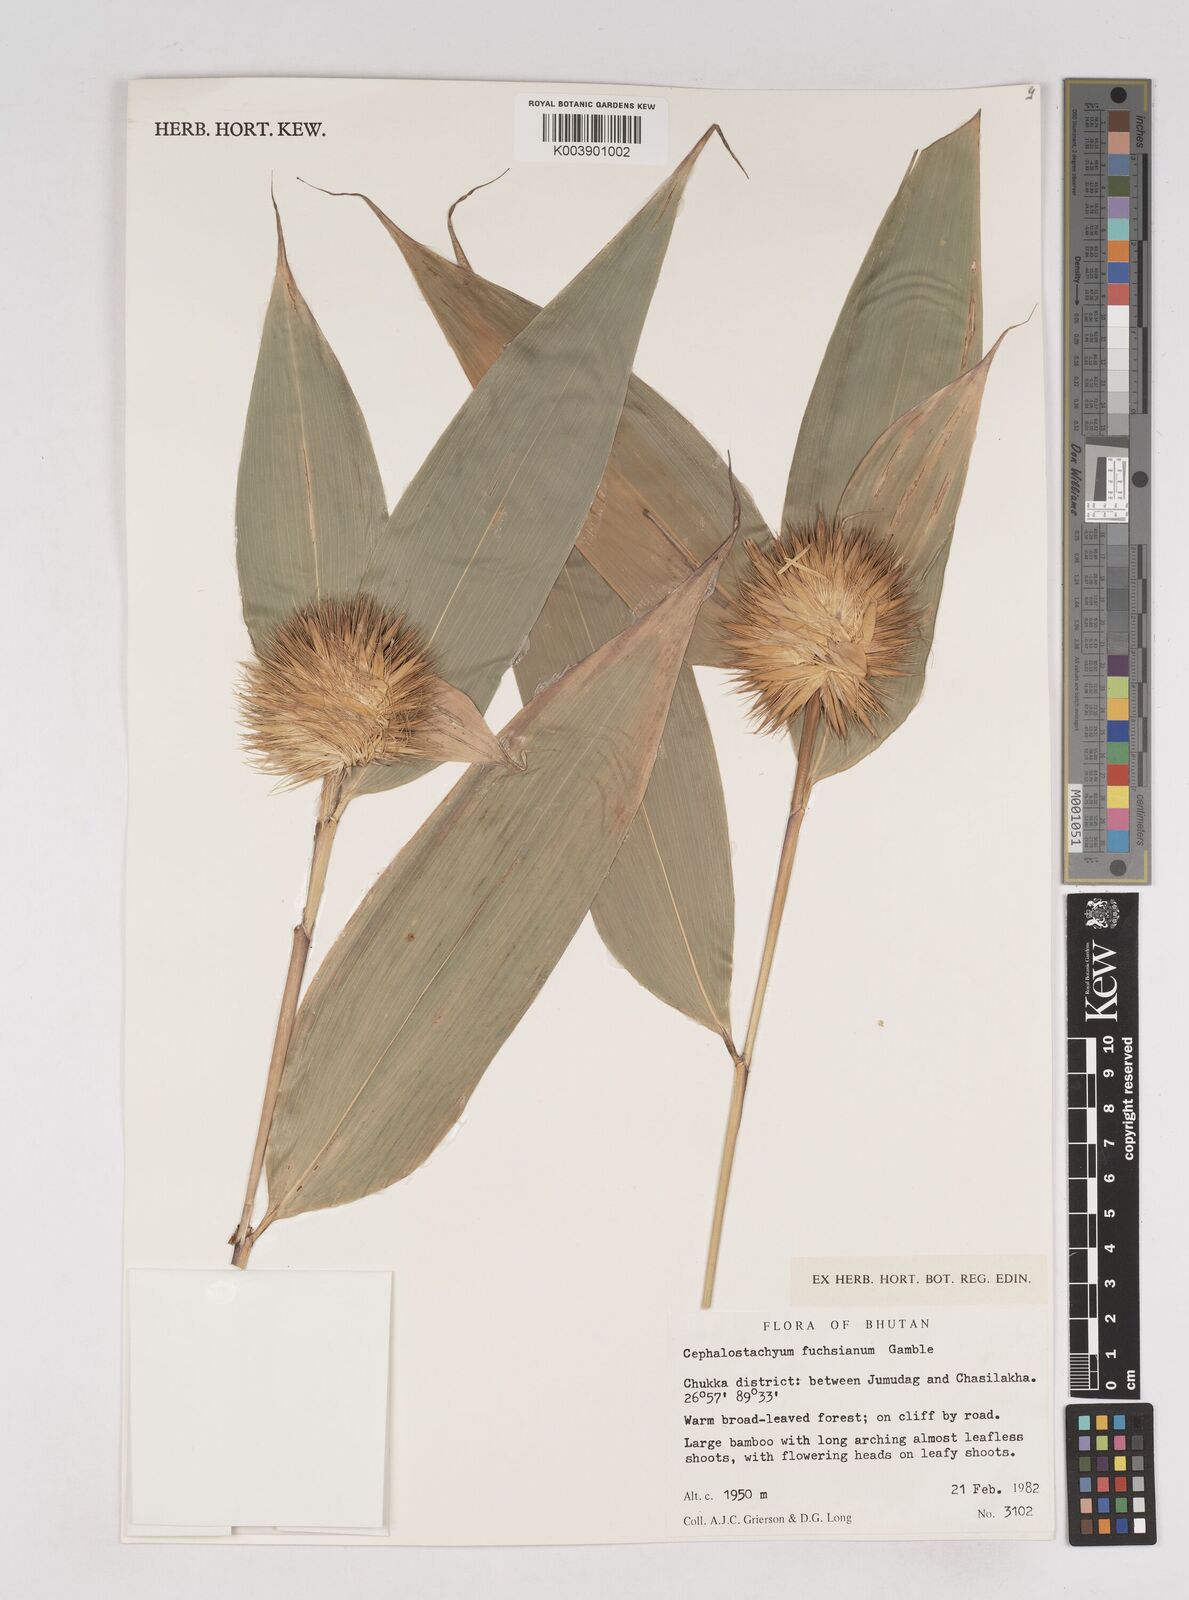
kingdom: Plantae
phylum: Tracheophyta
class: Liliopsida
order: Poales
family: Poaceae
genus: Cephalostachyum
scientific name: Cephalostachyum latifolium
